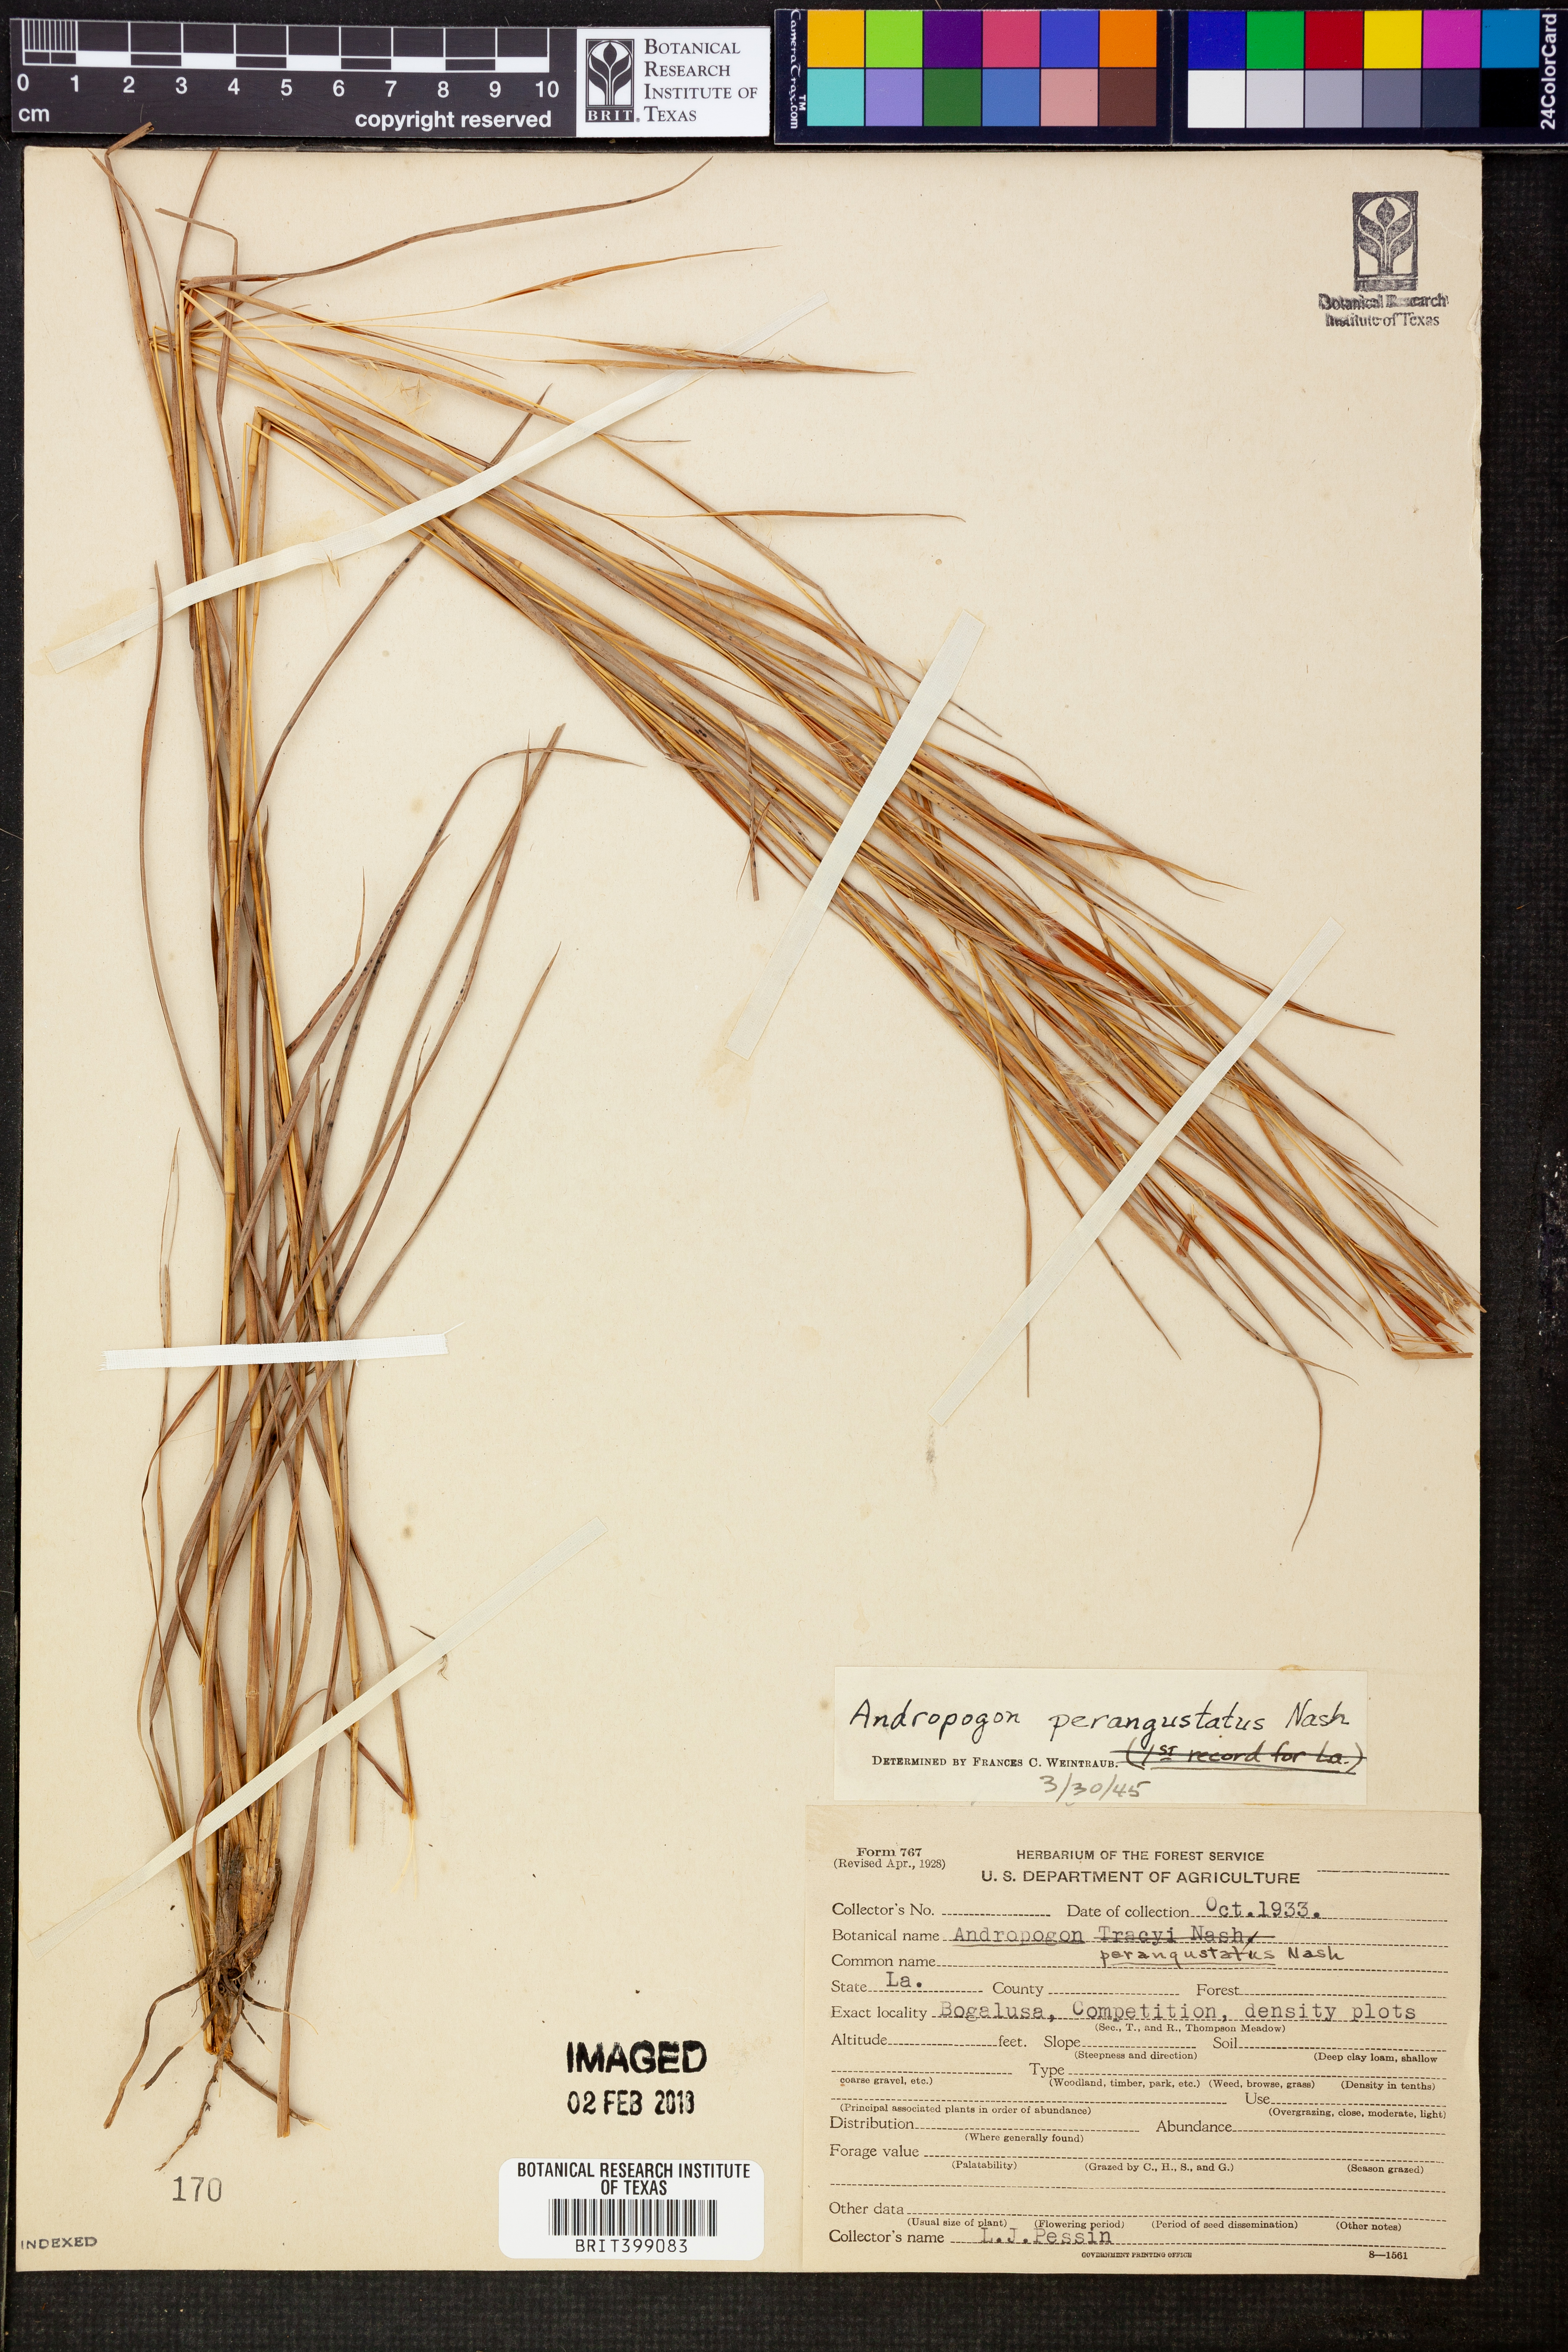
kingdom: Plantae
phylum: Tracheophyta
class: Liliopsida
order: Poales
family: Poaceae
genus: Andropogon
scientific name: Andropogon perangustatus
